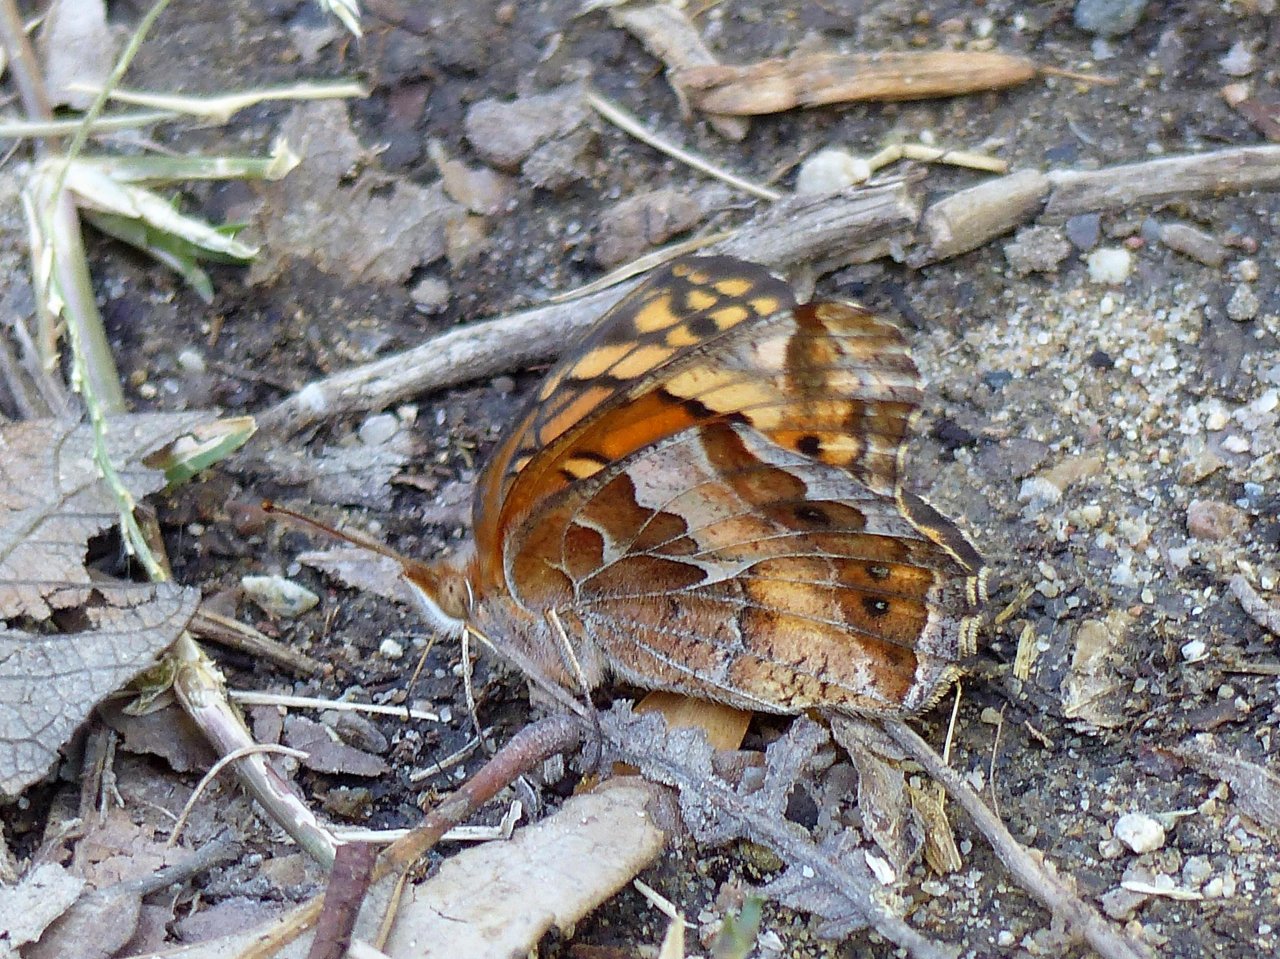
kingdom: Animalia
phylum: Arthropoda
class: Insecta
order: Lepidoptera
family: Nymphalidae
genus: Euptoieta
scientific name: Euptoieta claudia
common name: Variegated Fritillary
